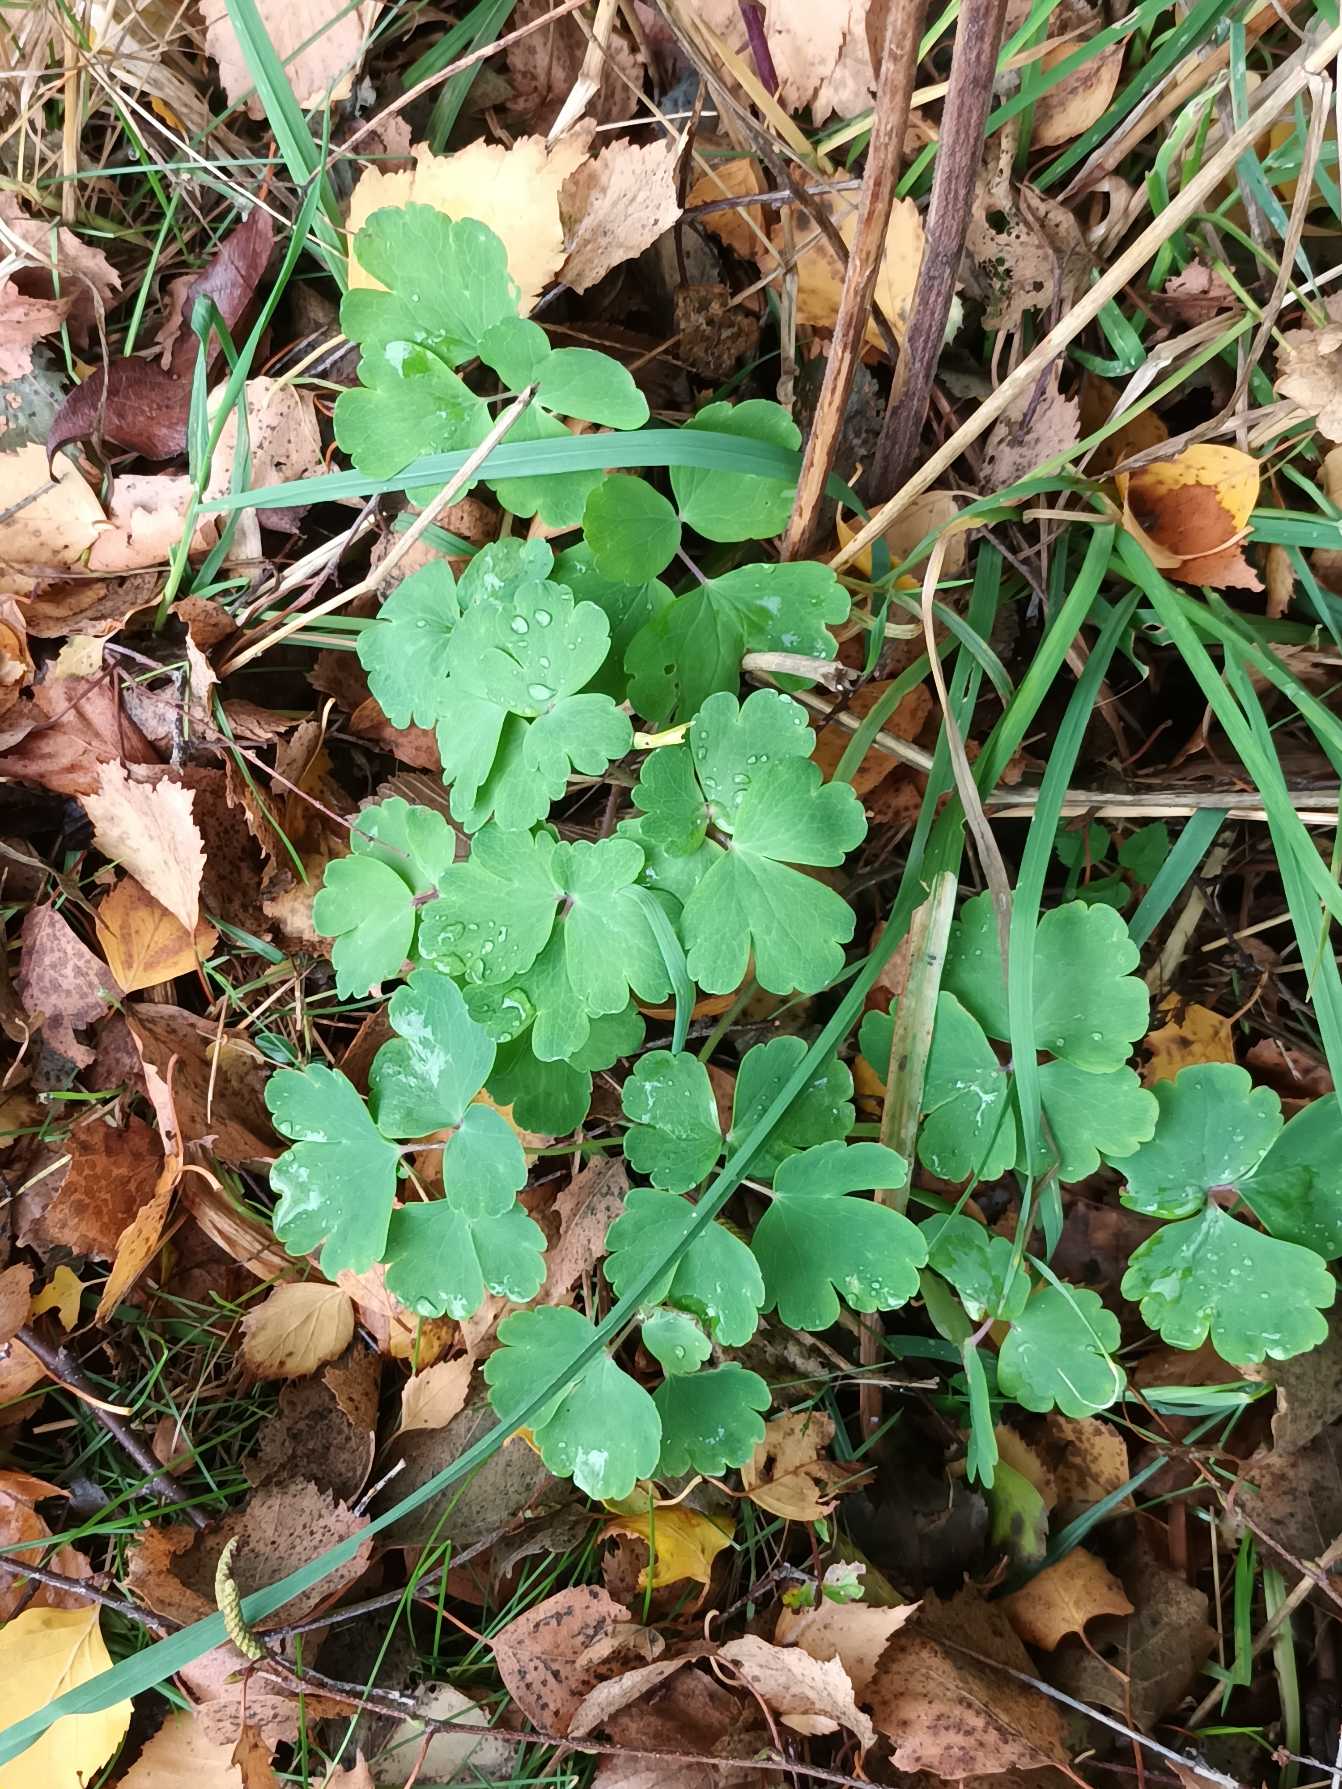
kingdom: Plantae
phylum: Tracheophyta
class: Magnoliopsida
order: Ranunculales
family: Ranunculaceae
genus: Aquilegia
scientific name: Aquilegia vulgaris
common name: Akeleje
